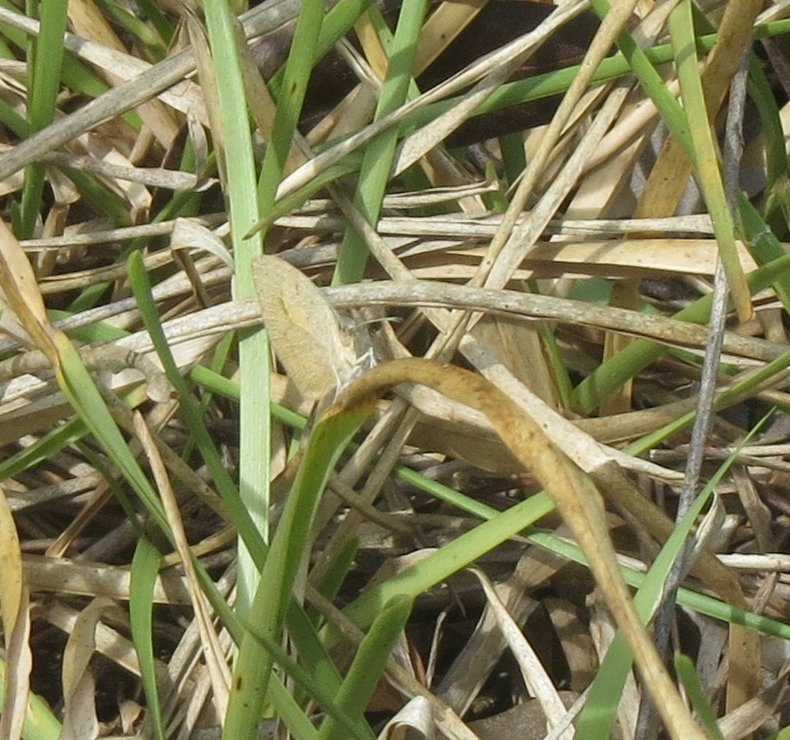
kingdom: Animalia
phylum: Arthropoda
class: Insecta
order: Lepidoptera
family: Pieridae
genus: Eurema
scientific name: Eurema daira
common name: Barred Yellow
